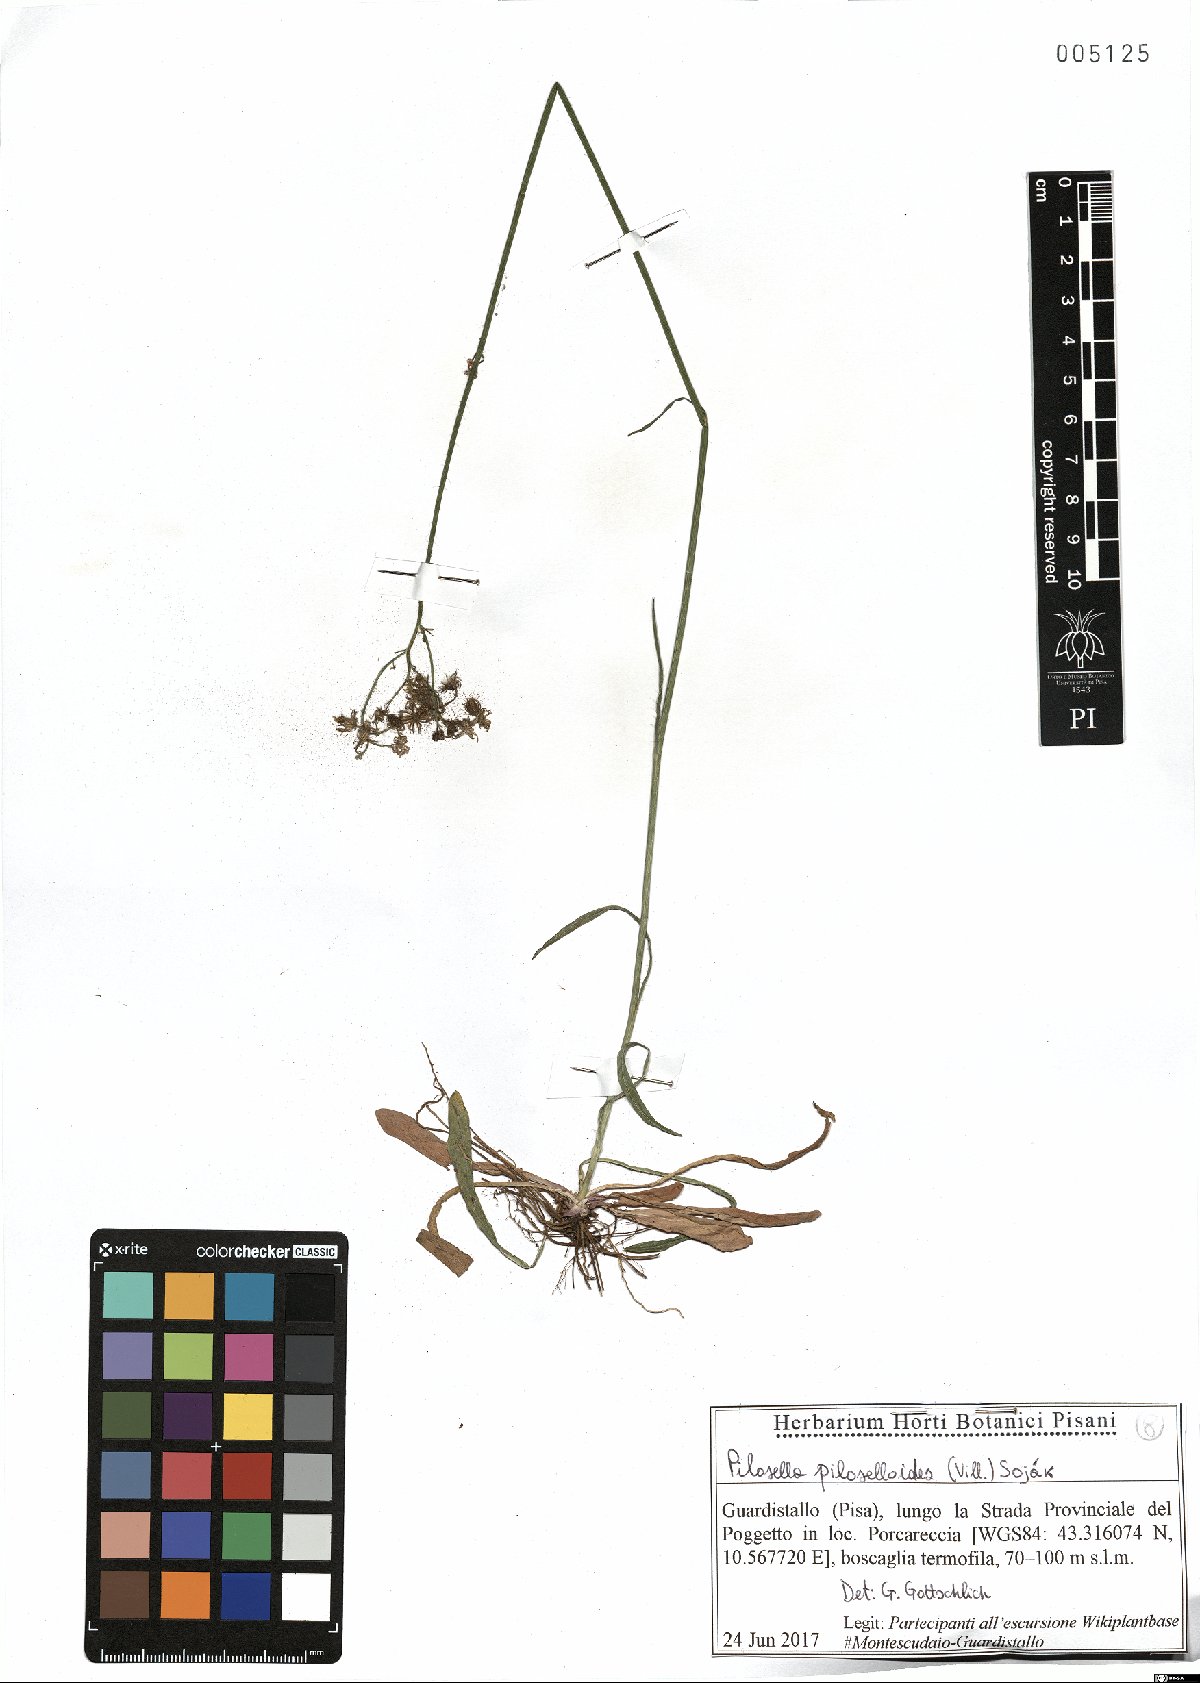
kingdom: Plantae
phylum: Tracheophyta
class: Magnoliopsida
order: Asterales
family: Asteraceae
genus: Pilosella
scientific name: Pilosella piloselloides
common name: Glaucous king-devil
